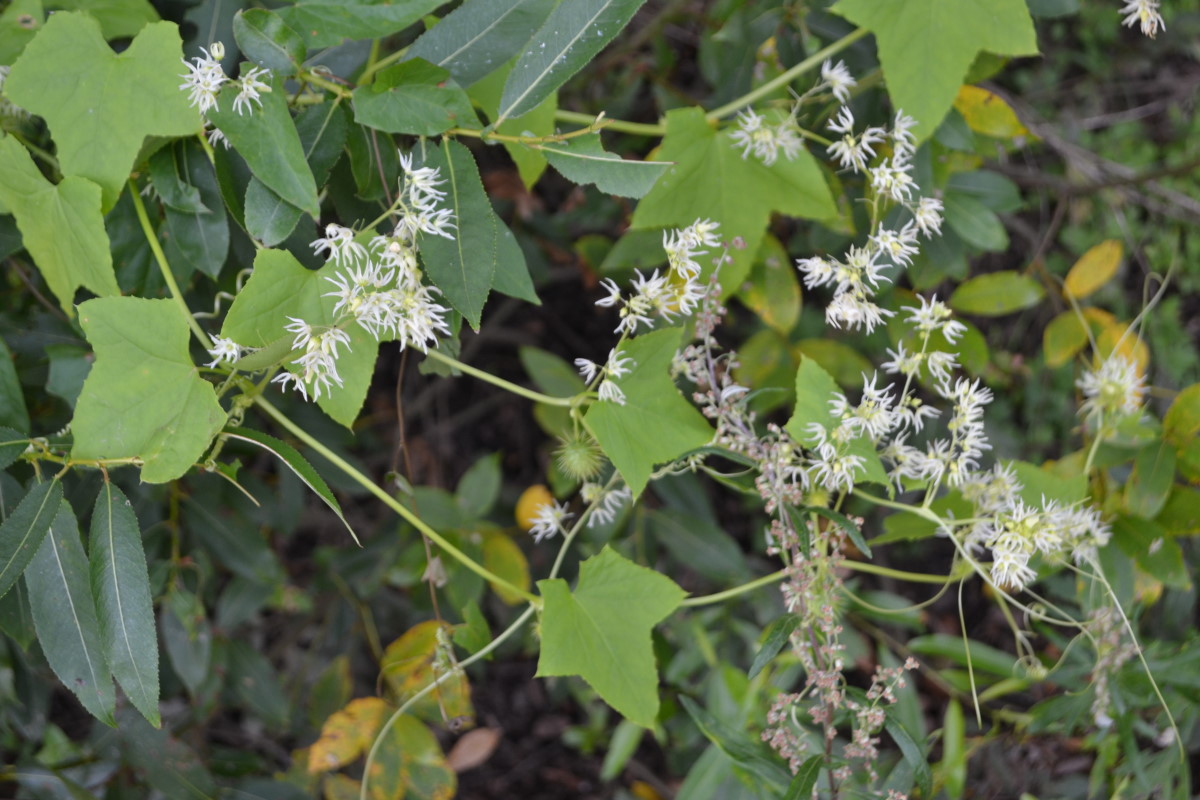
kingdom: Plantae
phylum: Tracheophyta
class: Magnoliopsida
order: Cucurbitales
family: Cucurbitaceae
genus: Echinocystis
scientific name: Echinocystis lobata
